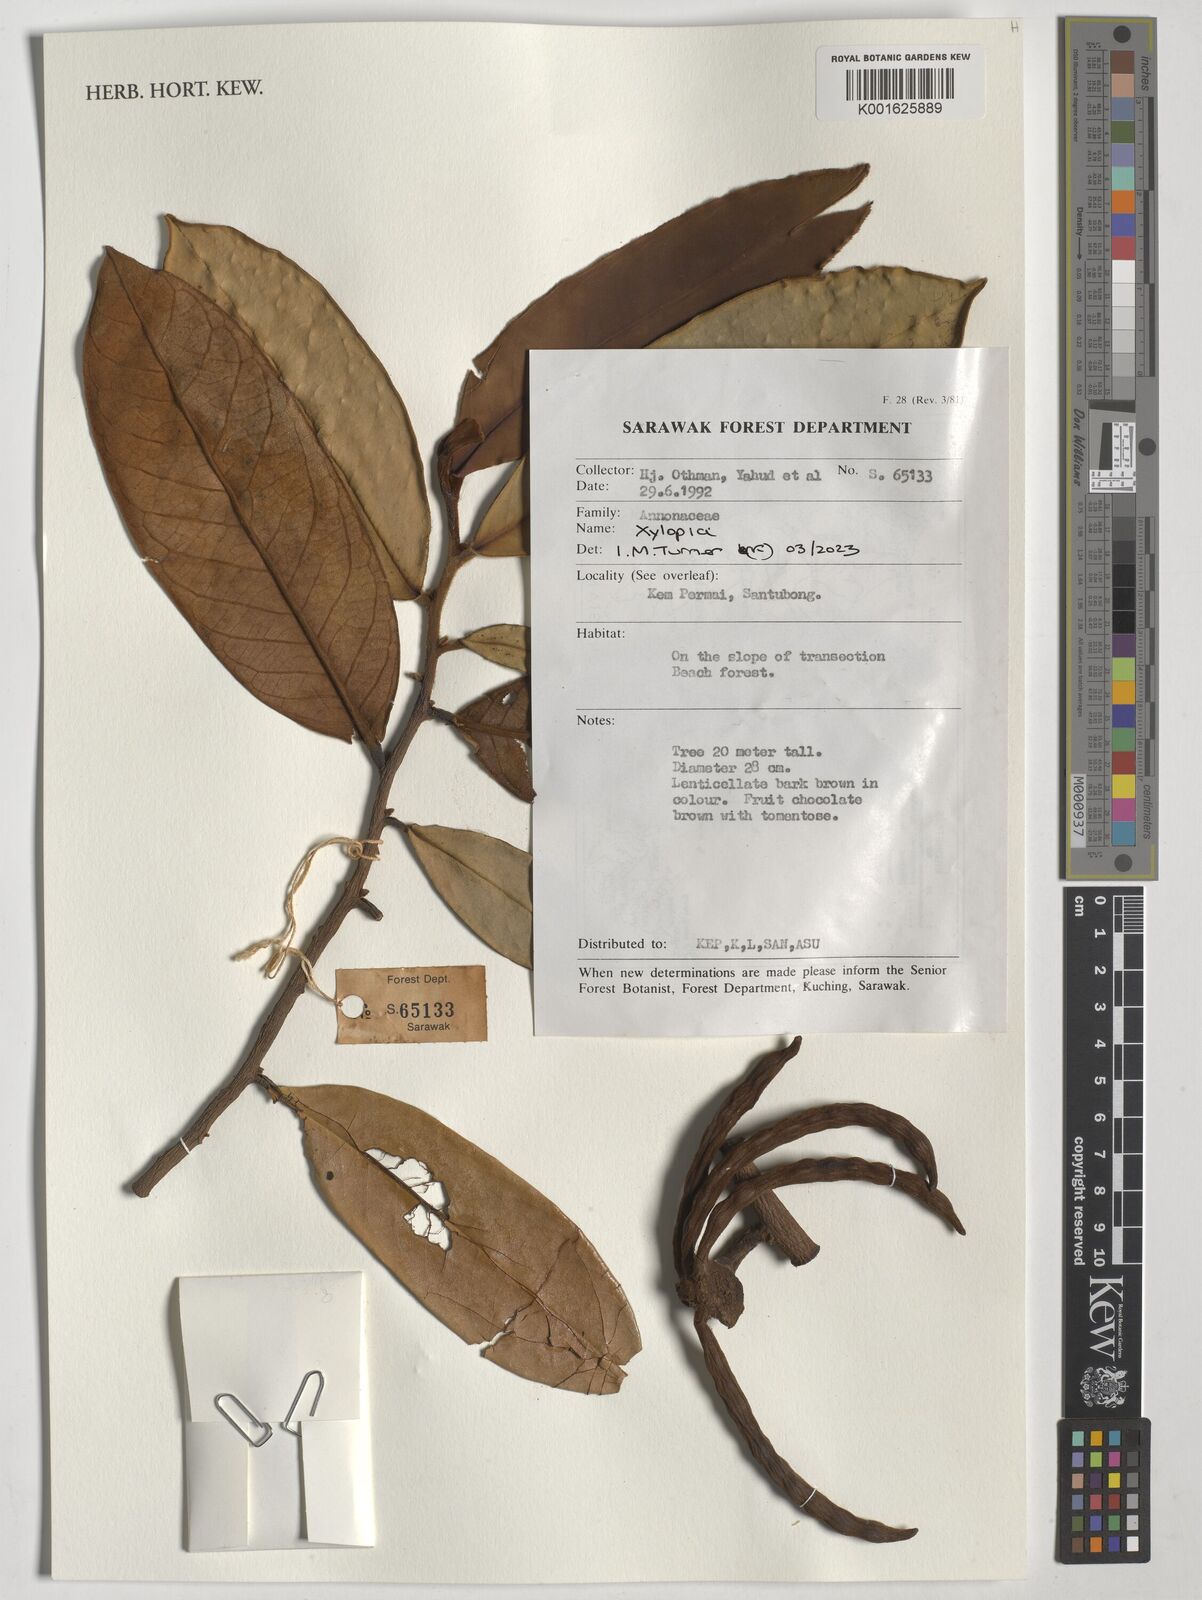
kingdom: Plantae
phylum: Tracheophyta
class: Magnoliopsida
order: Magnoliales
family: Annonaceae
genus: Xylopia
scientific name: Xylopia
